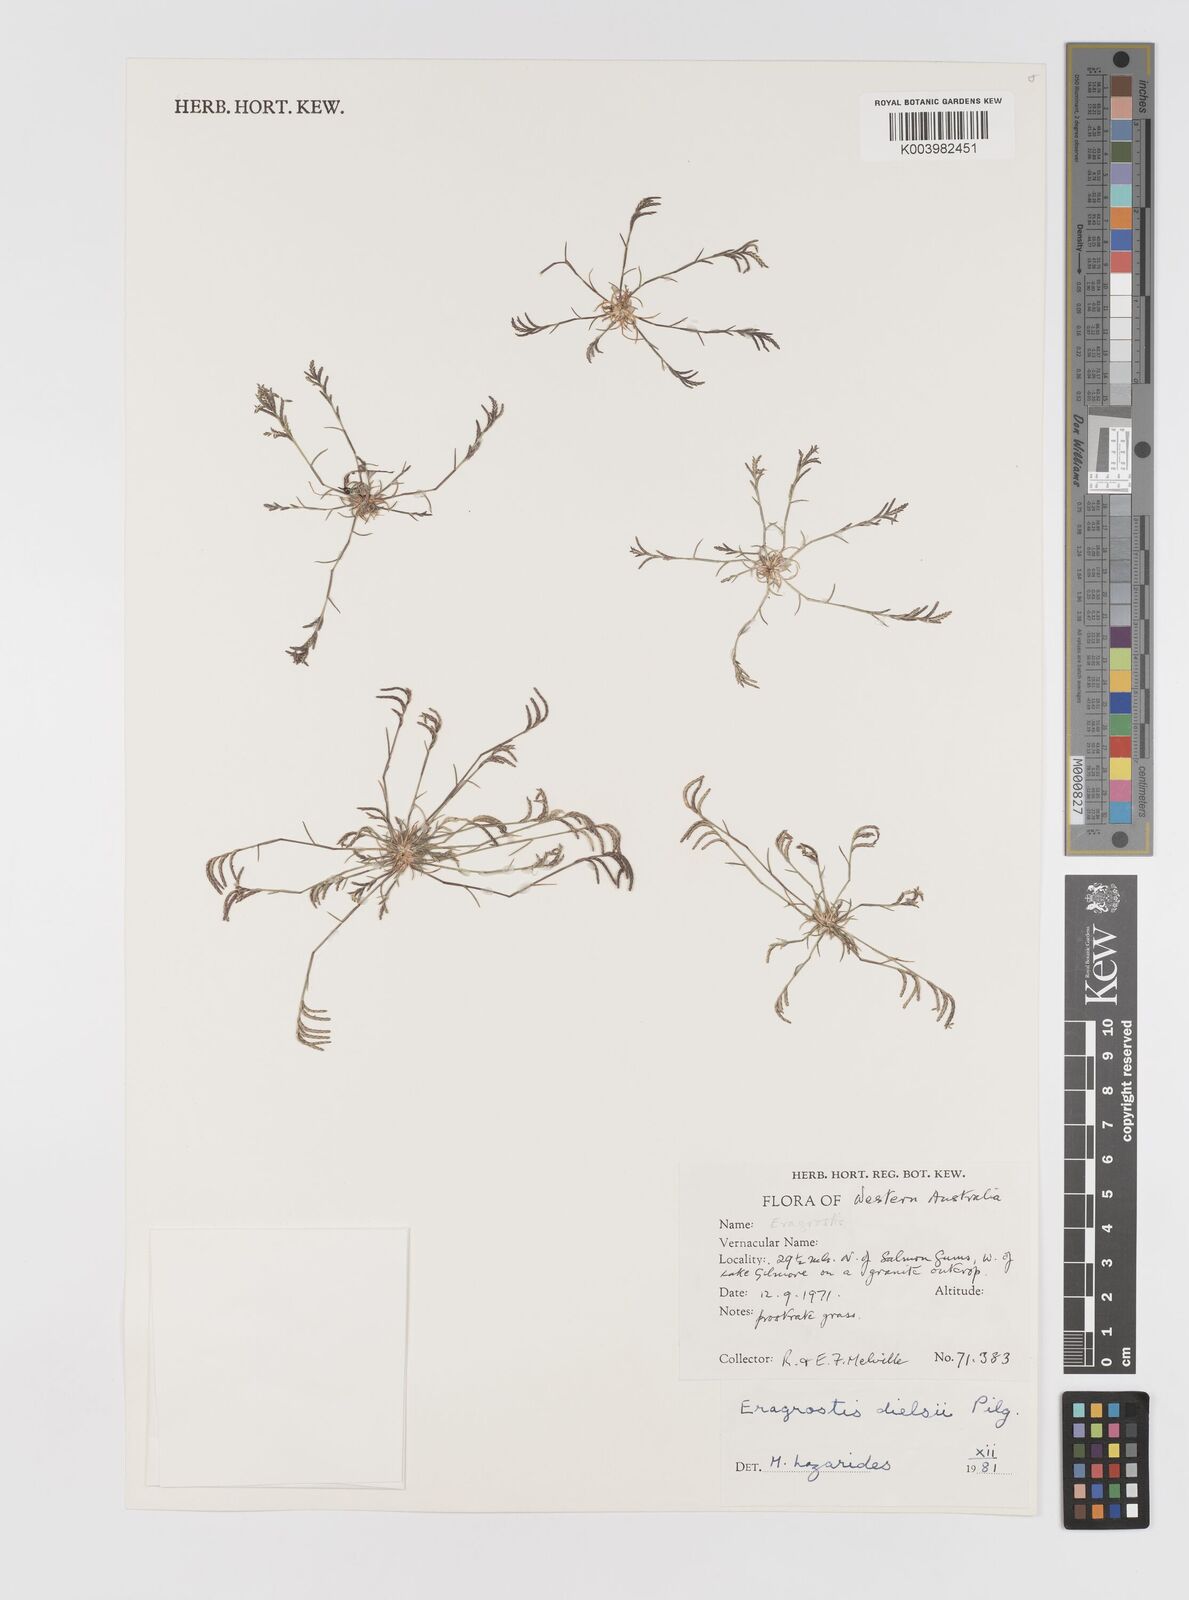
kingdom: Plantae
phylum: Tracheophyta
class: Liliopsida
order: Poales
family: Poaceae
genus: Eragrostis
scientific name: Eragrostis dielsii
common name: Lovegrass
